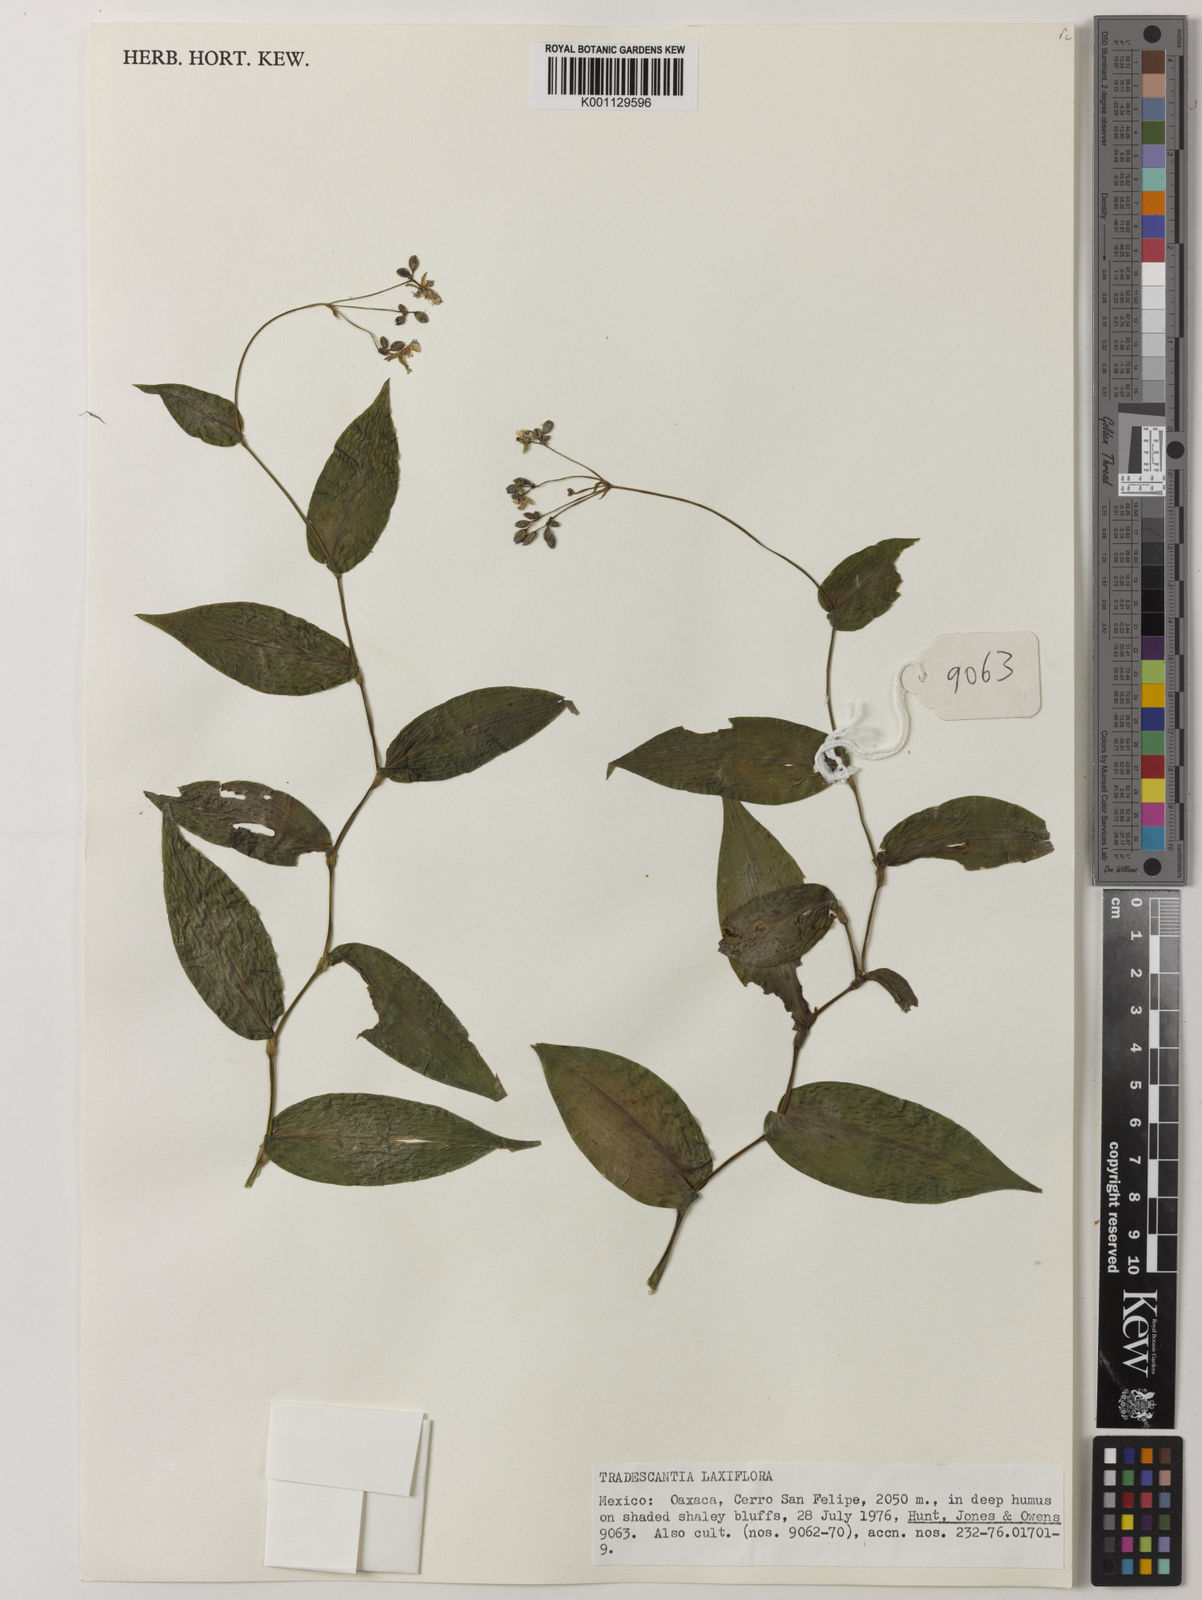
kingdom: Plantae
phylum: Tracheophyta
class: Liliopsida
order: Commelinales
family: Commelinaceae
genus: Thyrsanthemum
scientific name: Thyrsanthemum laxiflorum
